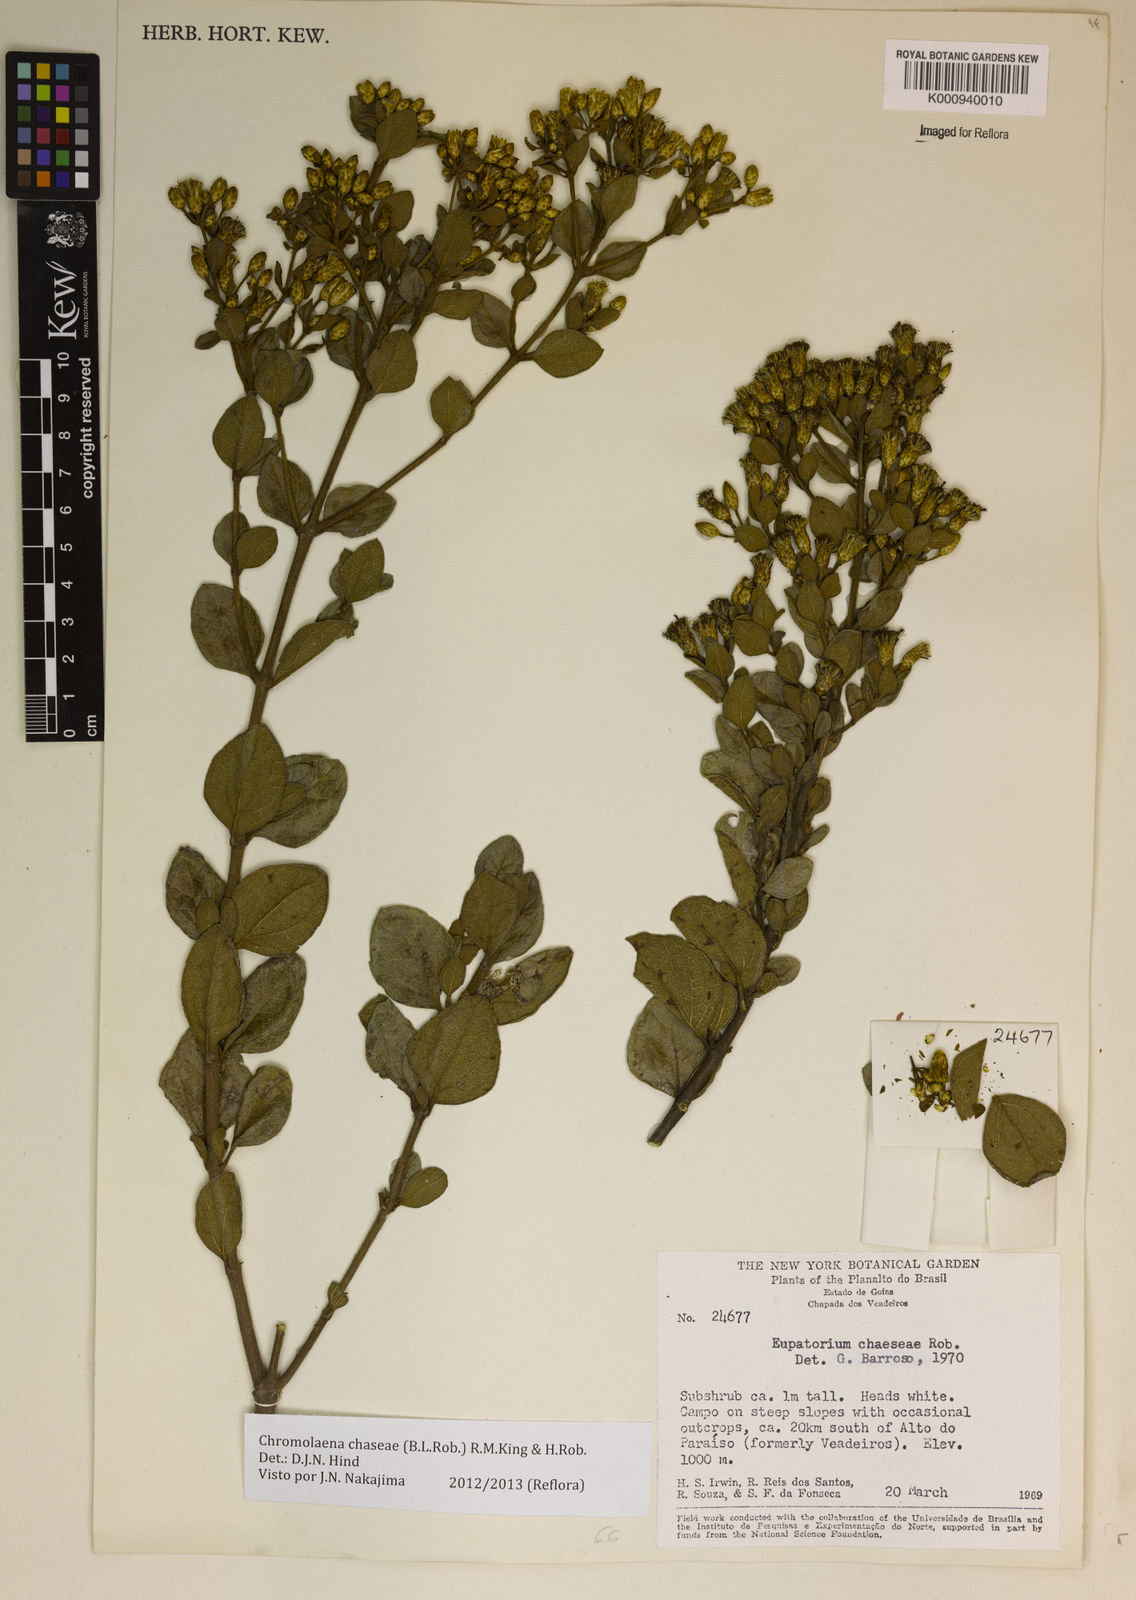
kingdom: Plantae
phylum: Tracheophyta
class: Magnoliopsida
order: Asterales
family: Asteraceae
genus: Chromolaena
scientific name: Chromolaena chaseae
